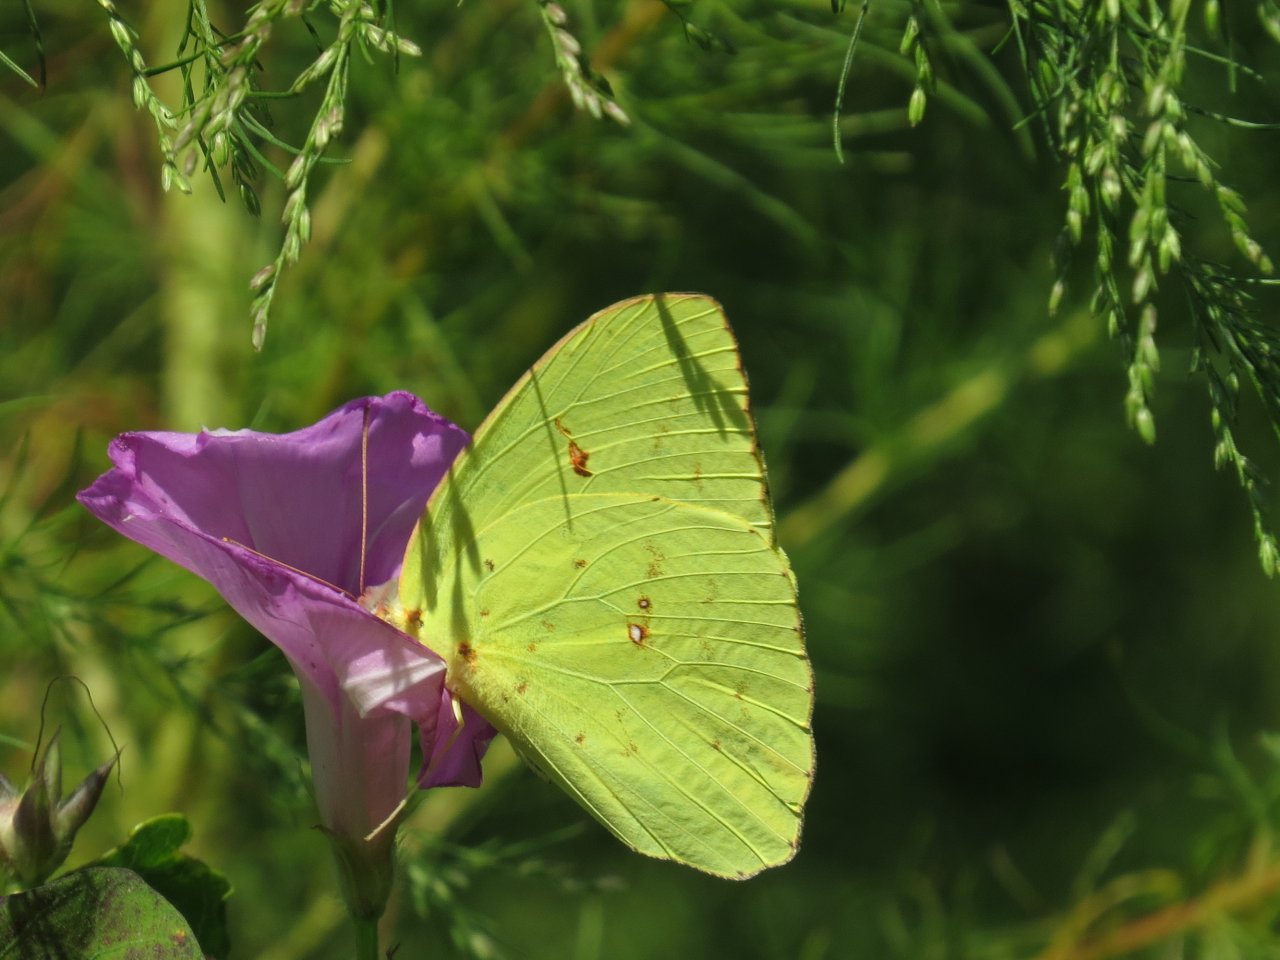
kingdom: Animalia
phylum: Arthropoda
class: Insecta
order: Lepidoptera
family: Pieridae
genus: Phoebis
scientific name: Phoebis sennae
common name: Cloudless Sulphur
